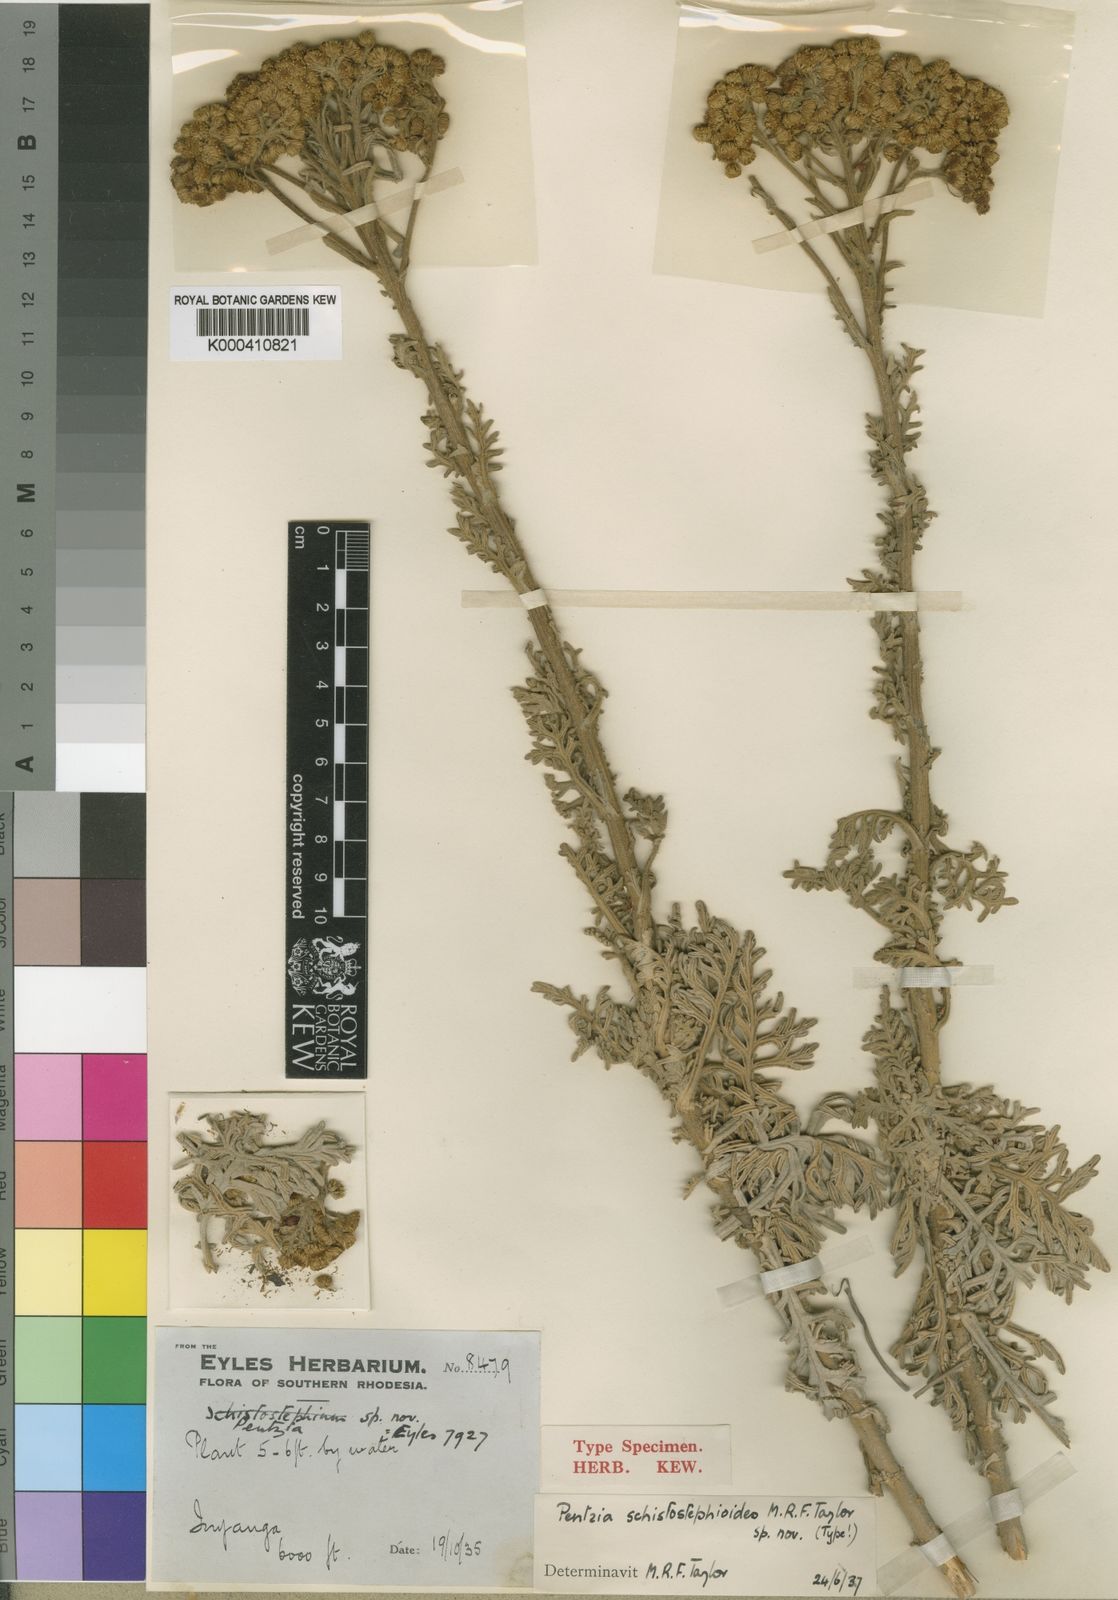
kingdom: Plantae
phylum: Tracheophyta
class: Magnoliopsida
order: Asterales
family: Asteraceae
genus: Inulanthera
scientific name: Inulanthera
